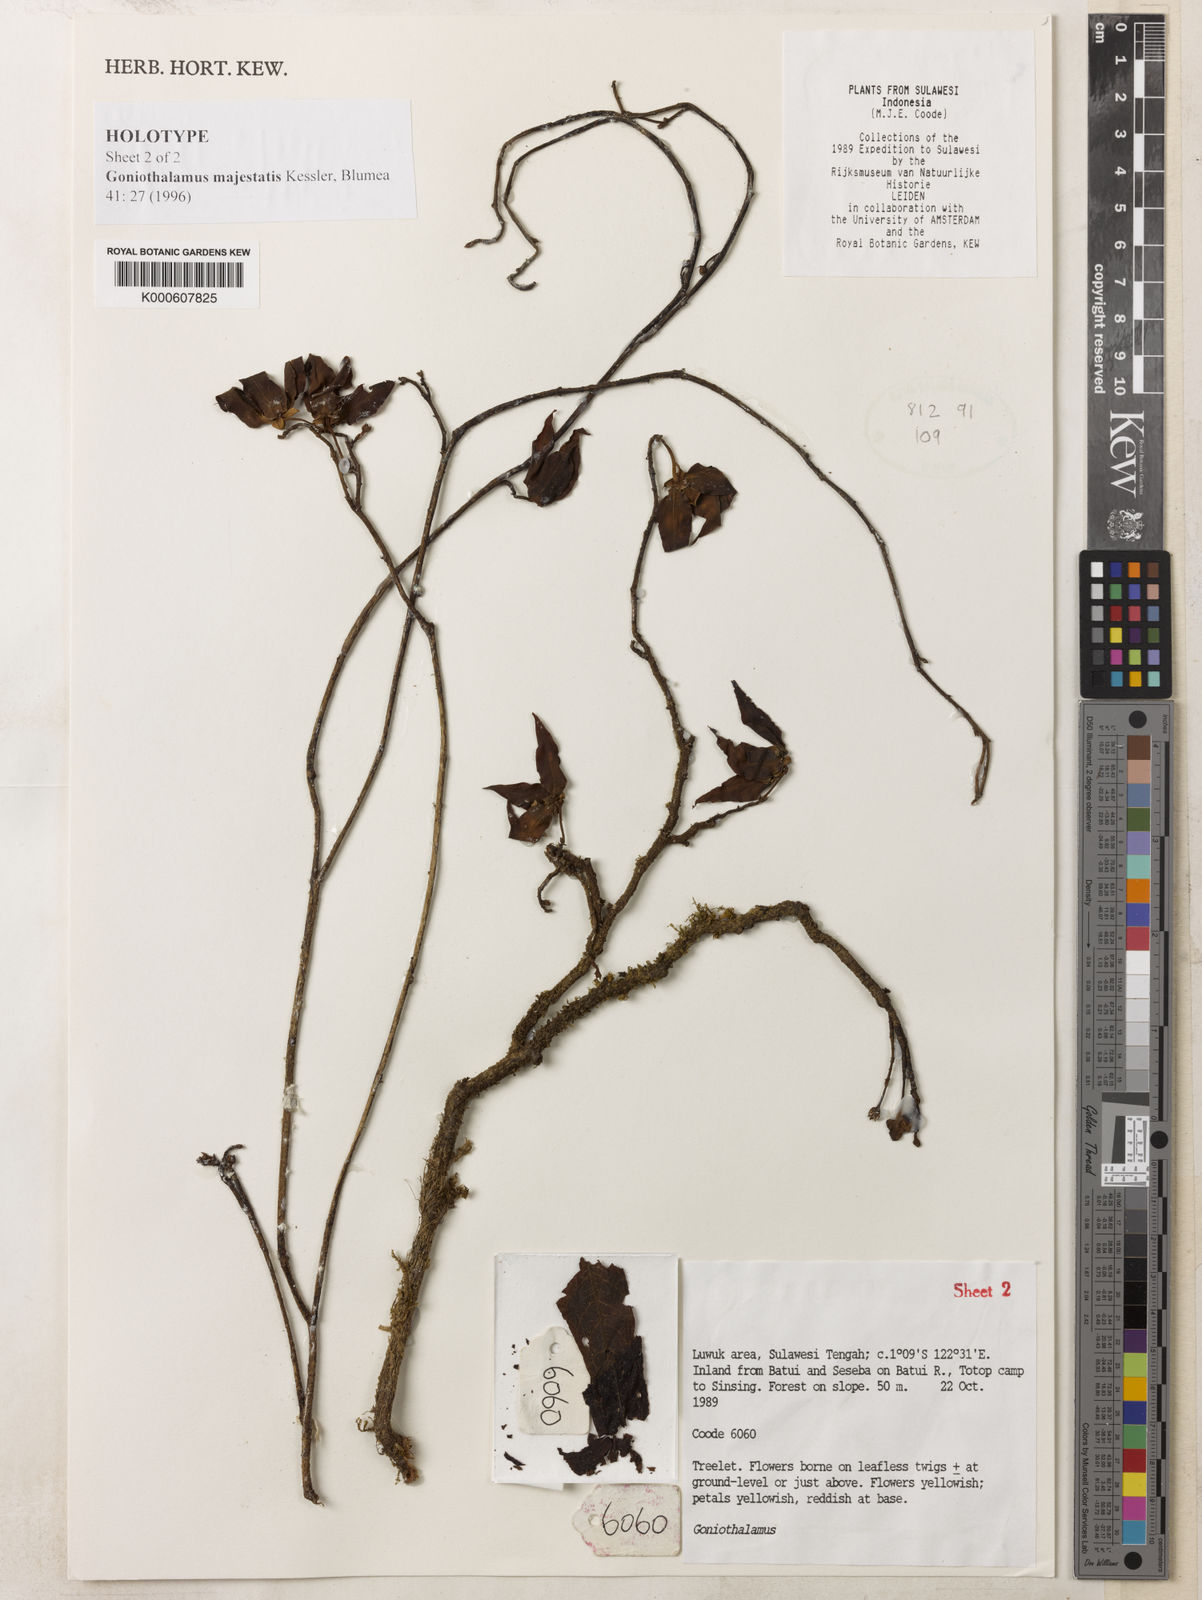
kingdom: Plantae
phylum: Tracheophyta
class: Magnoliopsida
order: Magnoliales
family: Annonaceae
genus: Goniothalamus
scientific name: Goniothalamus majestatis
